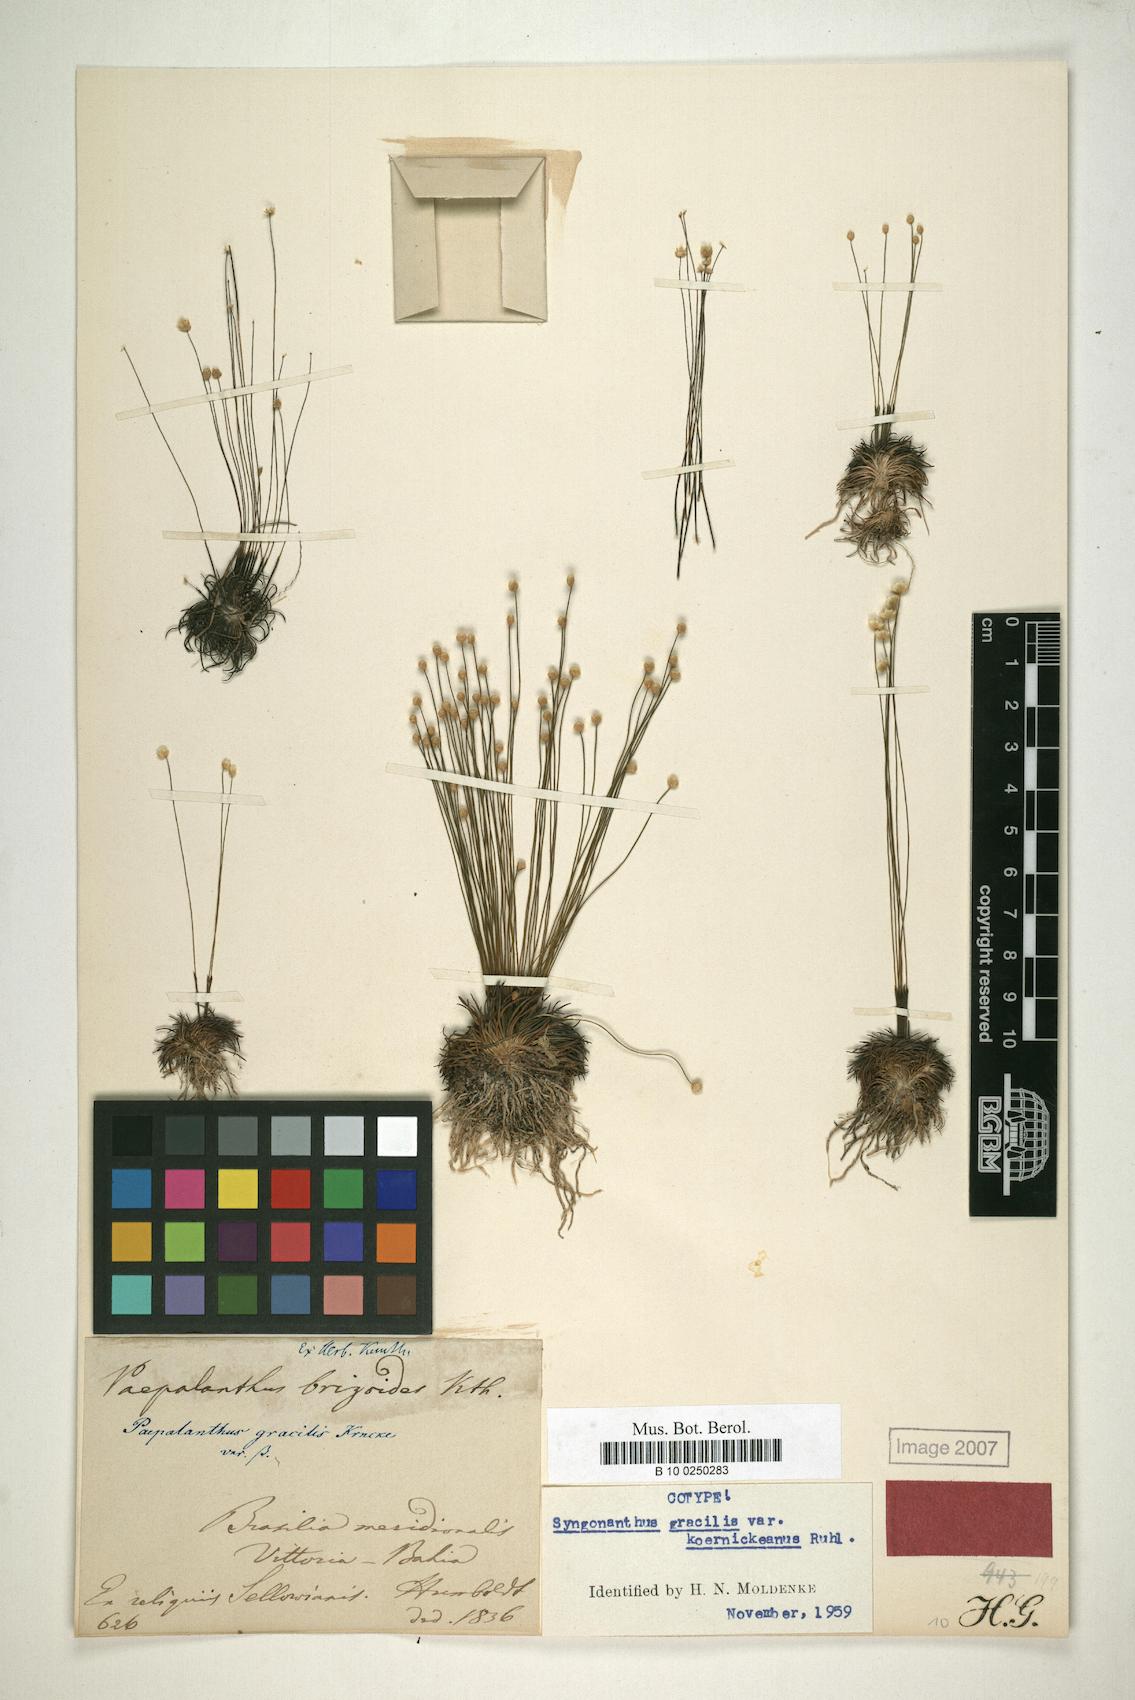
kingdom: Plantae
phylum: Tracheophyta
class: Liliopsida
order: Poales
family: Eriocaulaceae
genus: Syngonanthus
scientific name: Syngonanthus gracilis
